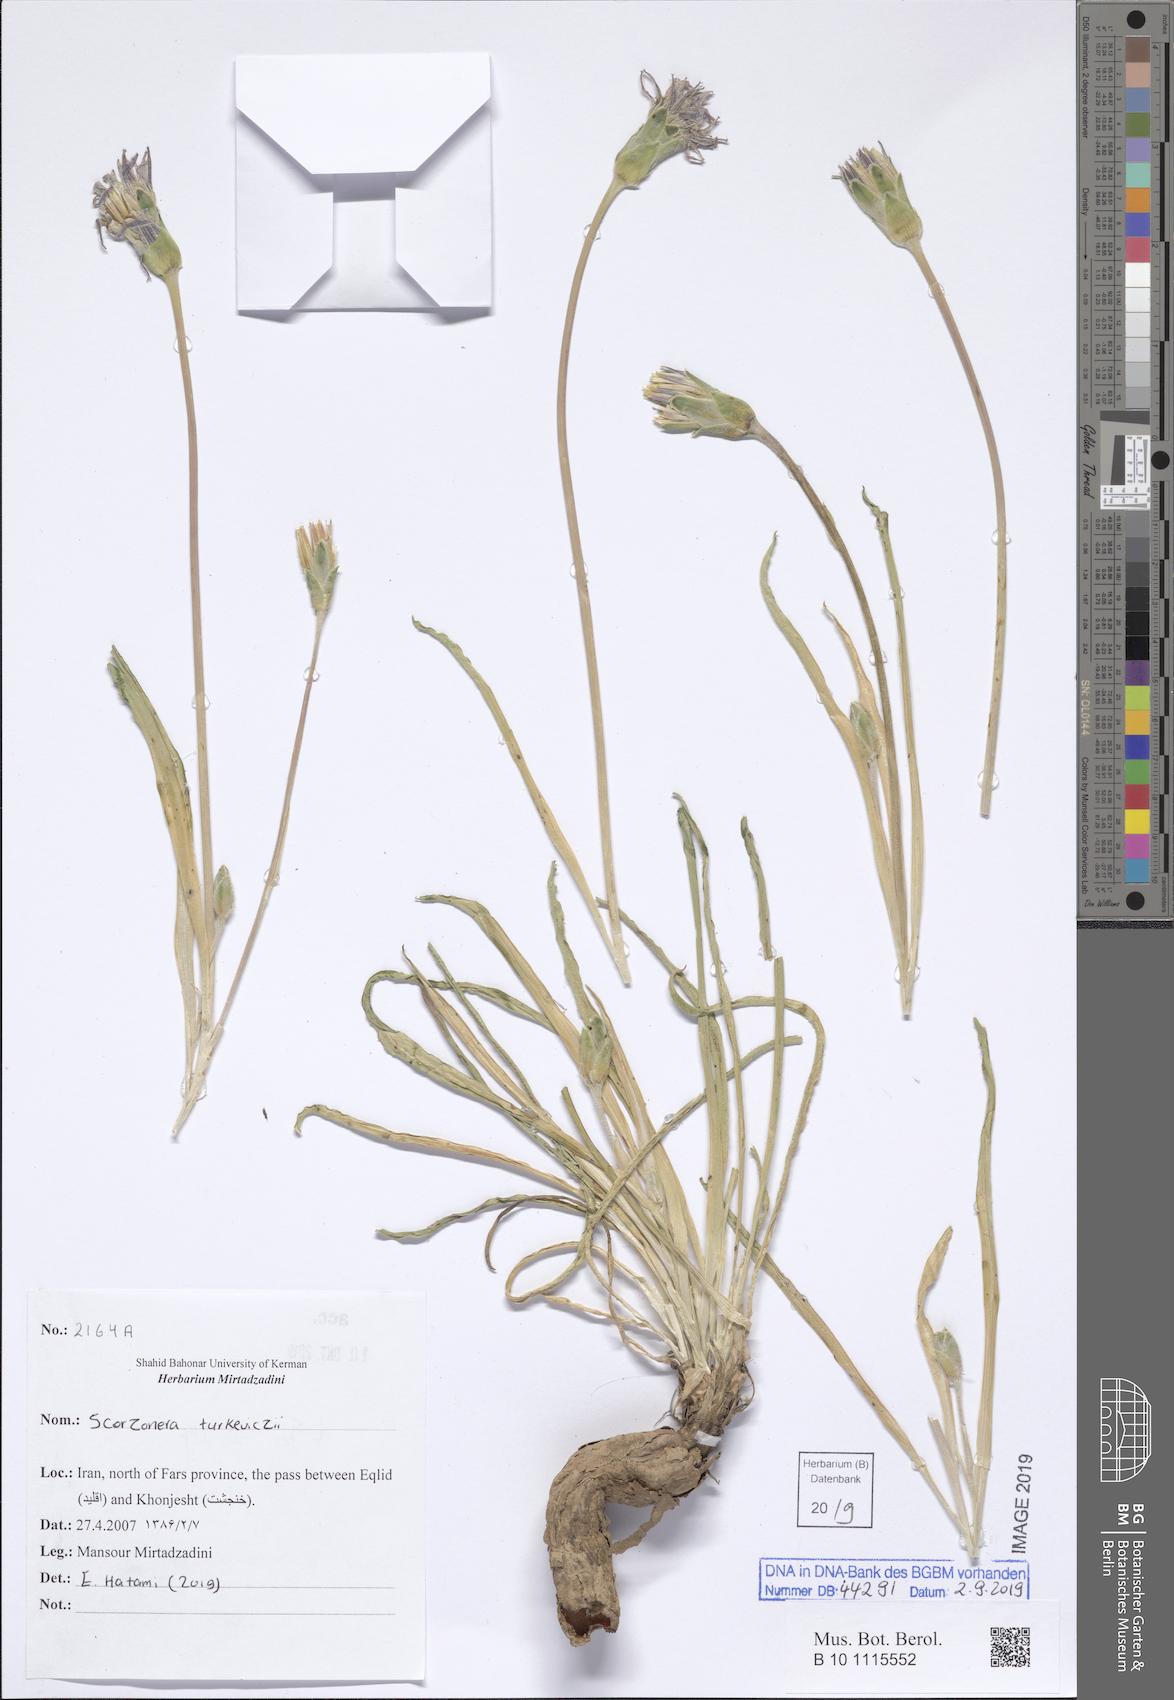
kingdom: Plantae
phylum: Tracheophyta
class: Magnoliopsida
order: Asterales
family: Asteraceae
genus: Pseudopodospermum
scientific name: Pseudopodospermum turkeviczii
